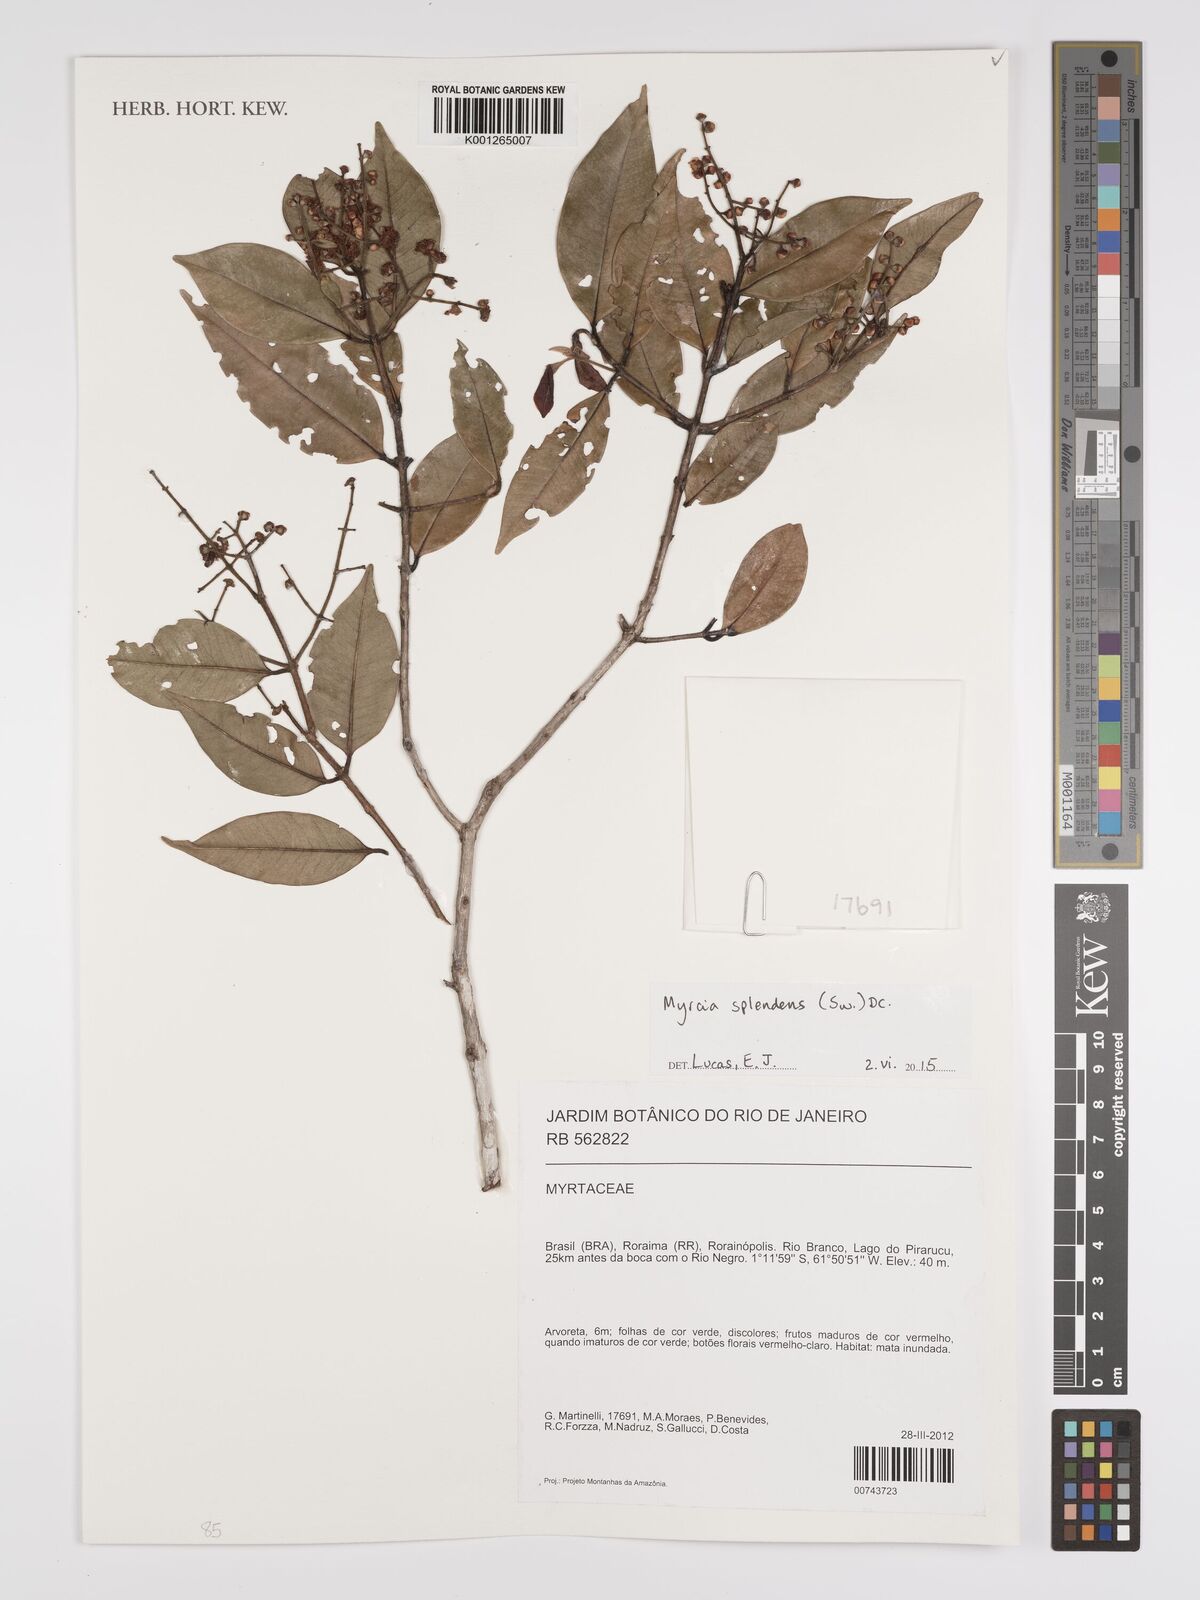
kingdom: Plantae
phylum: Tracheophyta
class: Magnoliopsida
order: Myrtales
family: Myrtaceae
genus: Myrcia
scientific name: Myrcia splendens
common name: Surinam cherry
